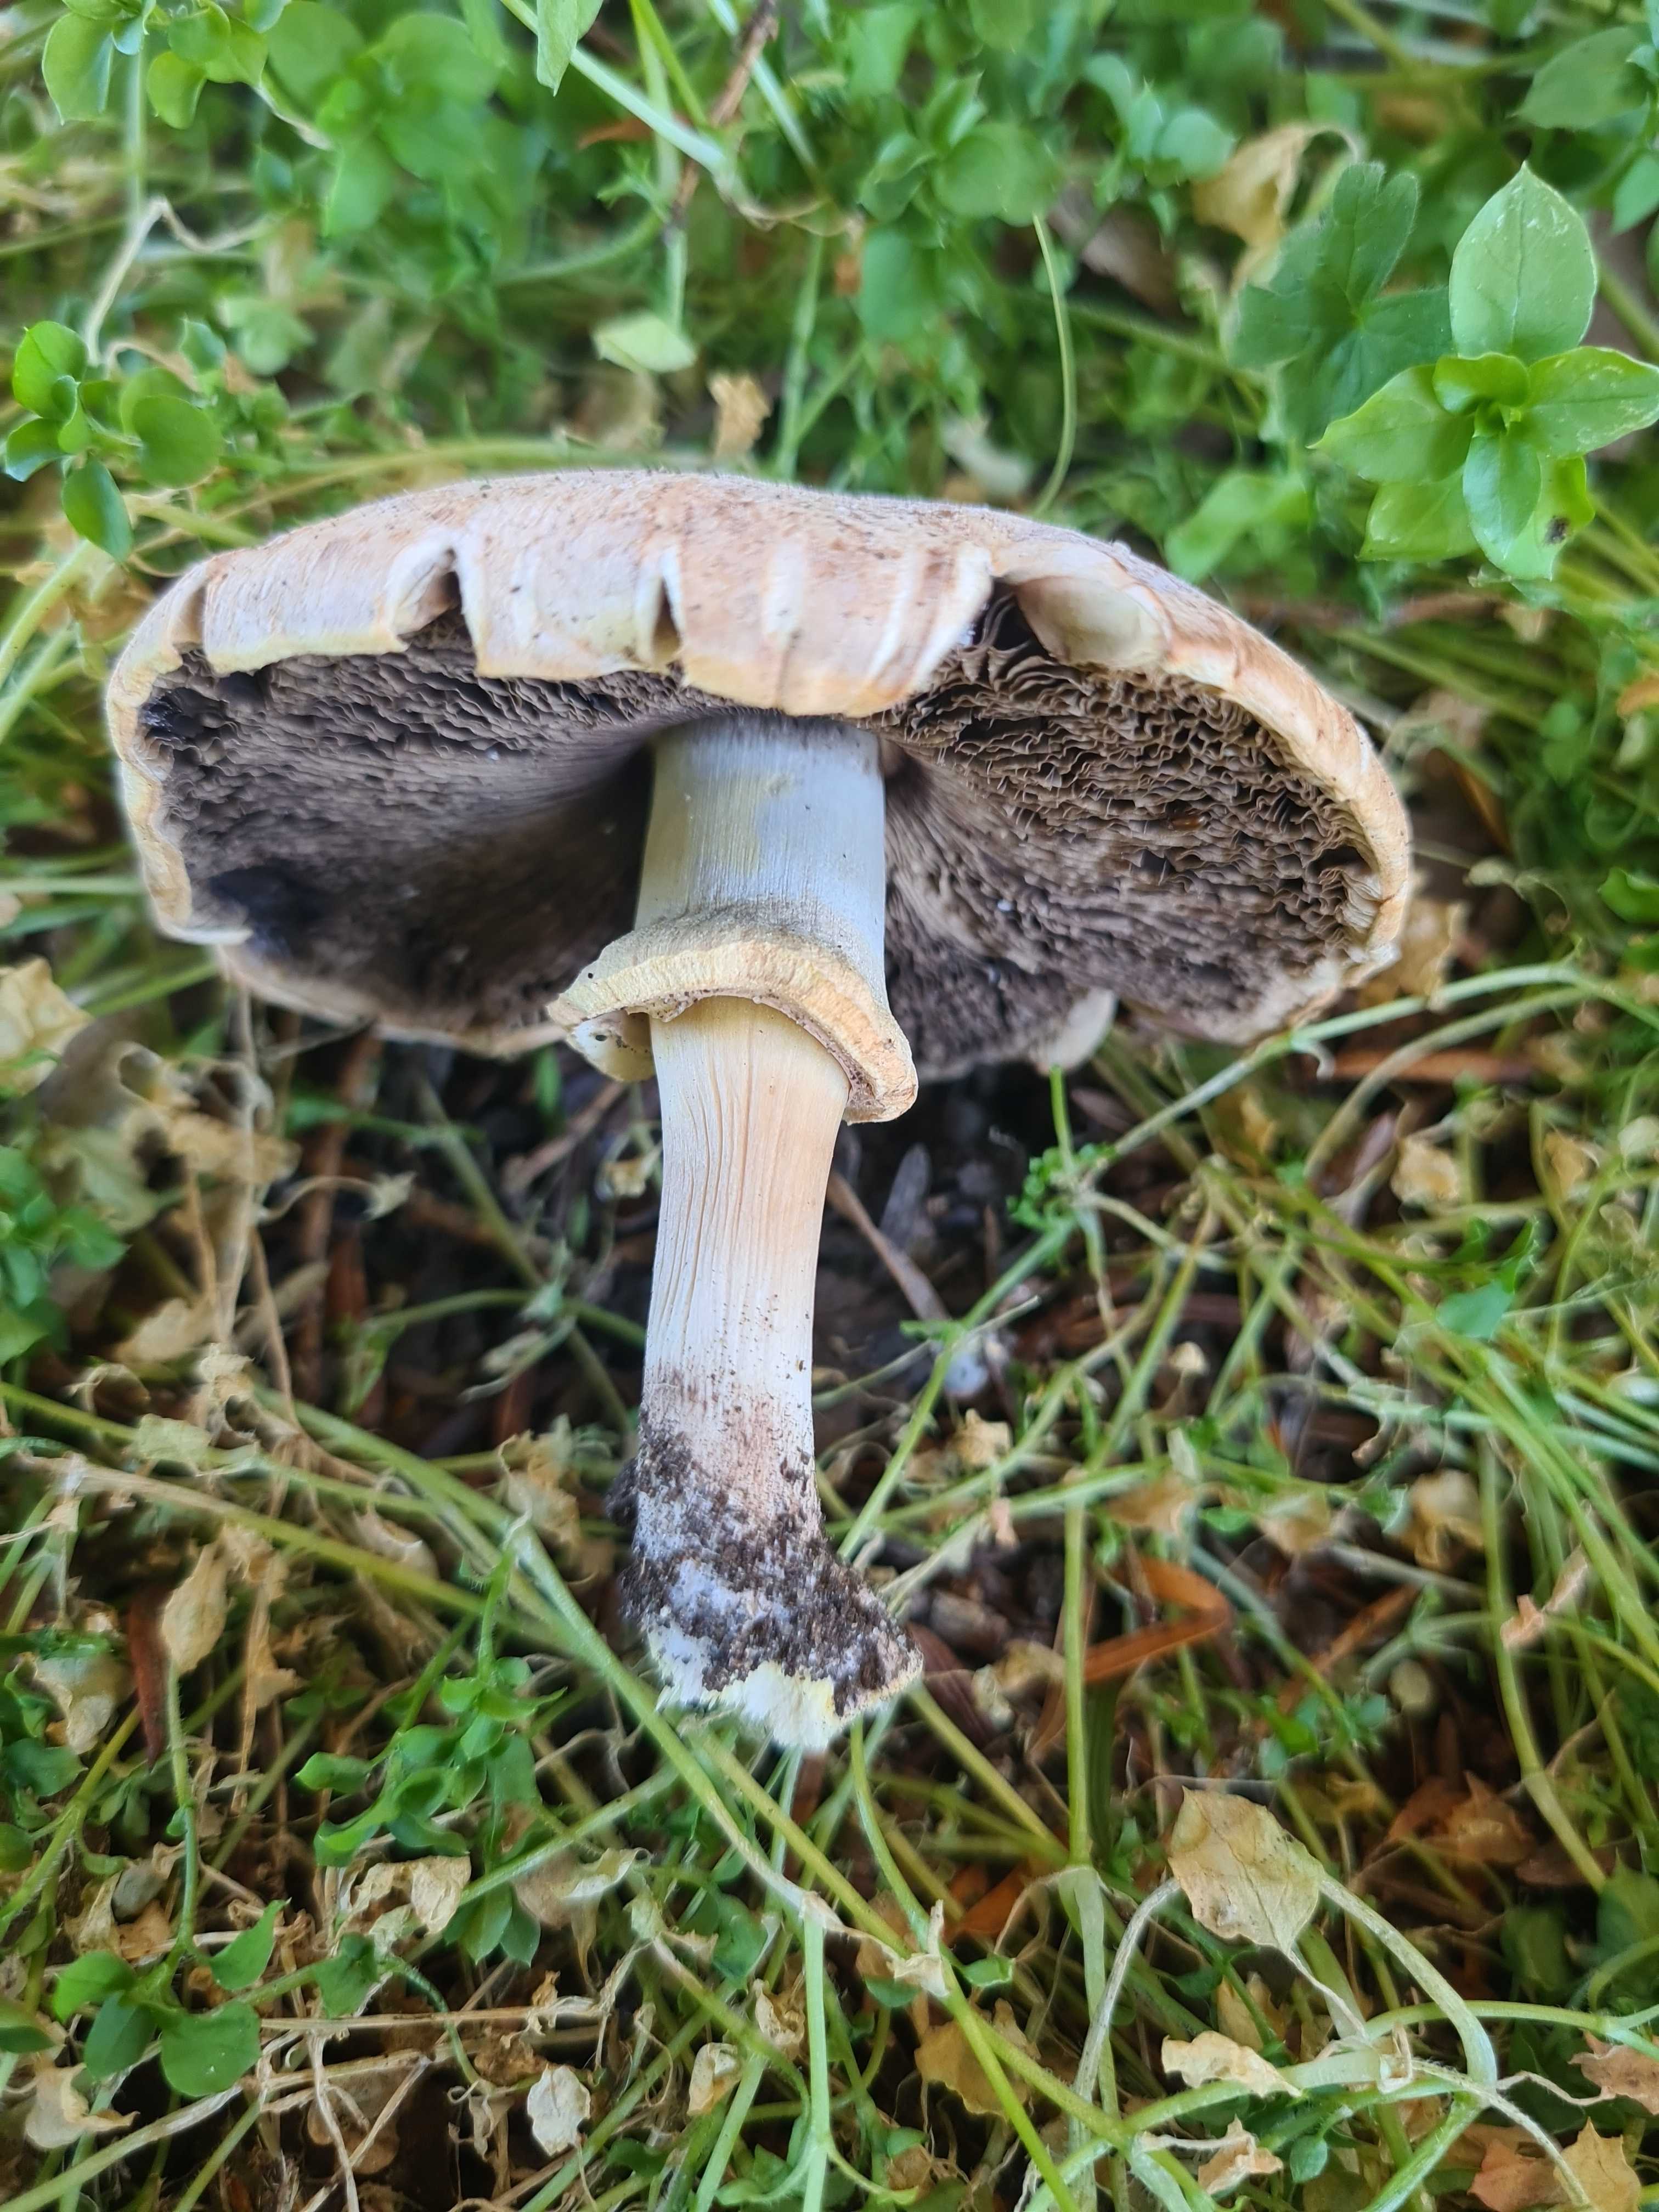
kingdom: Fungi
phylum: Basidiomycota
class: Agaricomycetes
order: Agaricales
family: Agaricaceae
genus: Agaricus
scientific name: Agaricus
